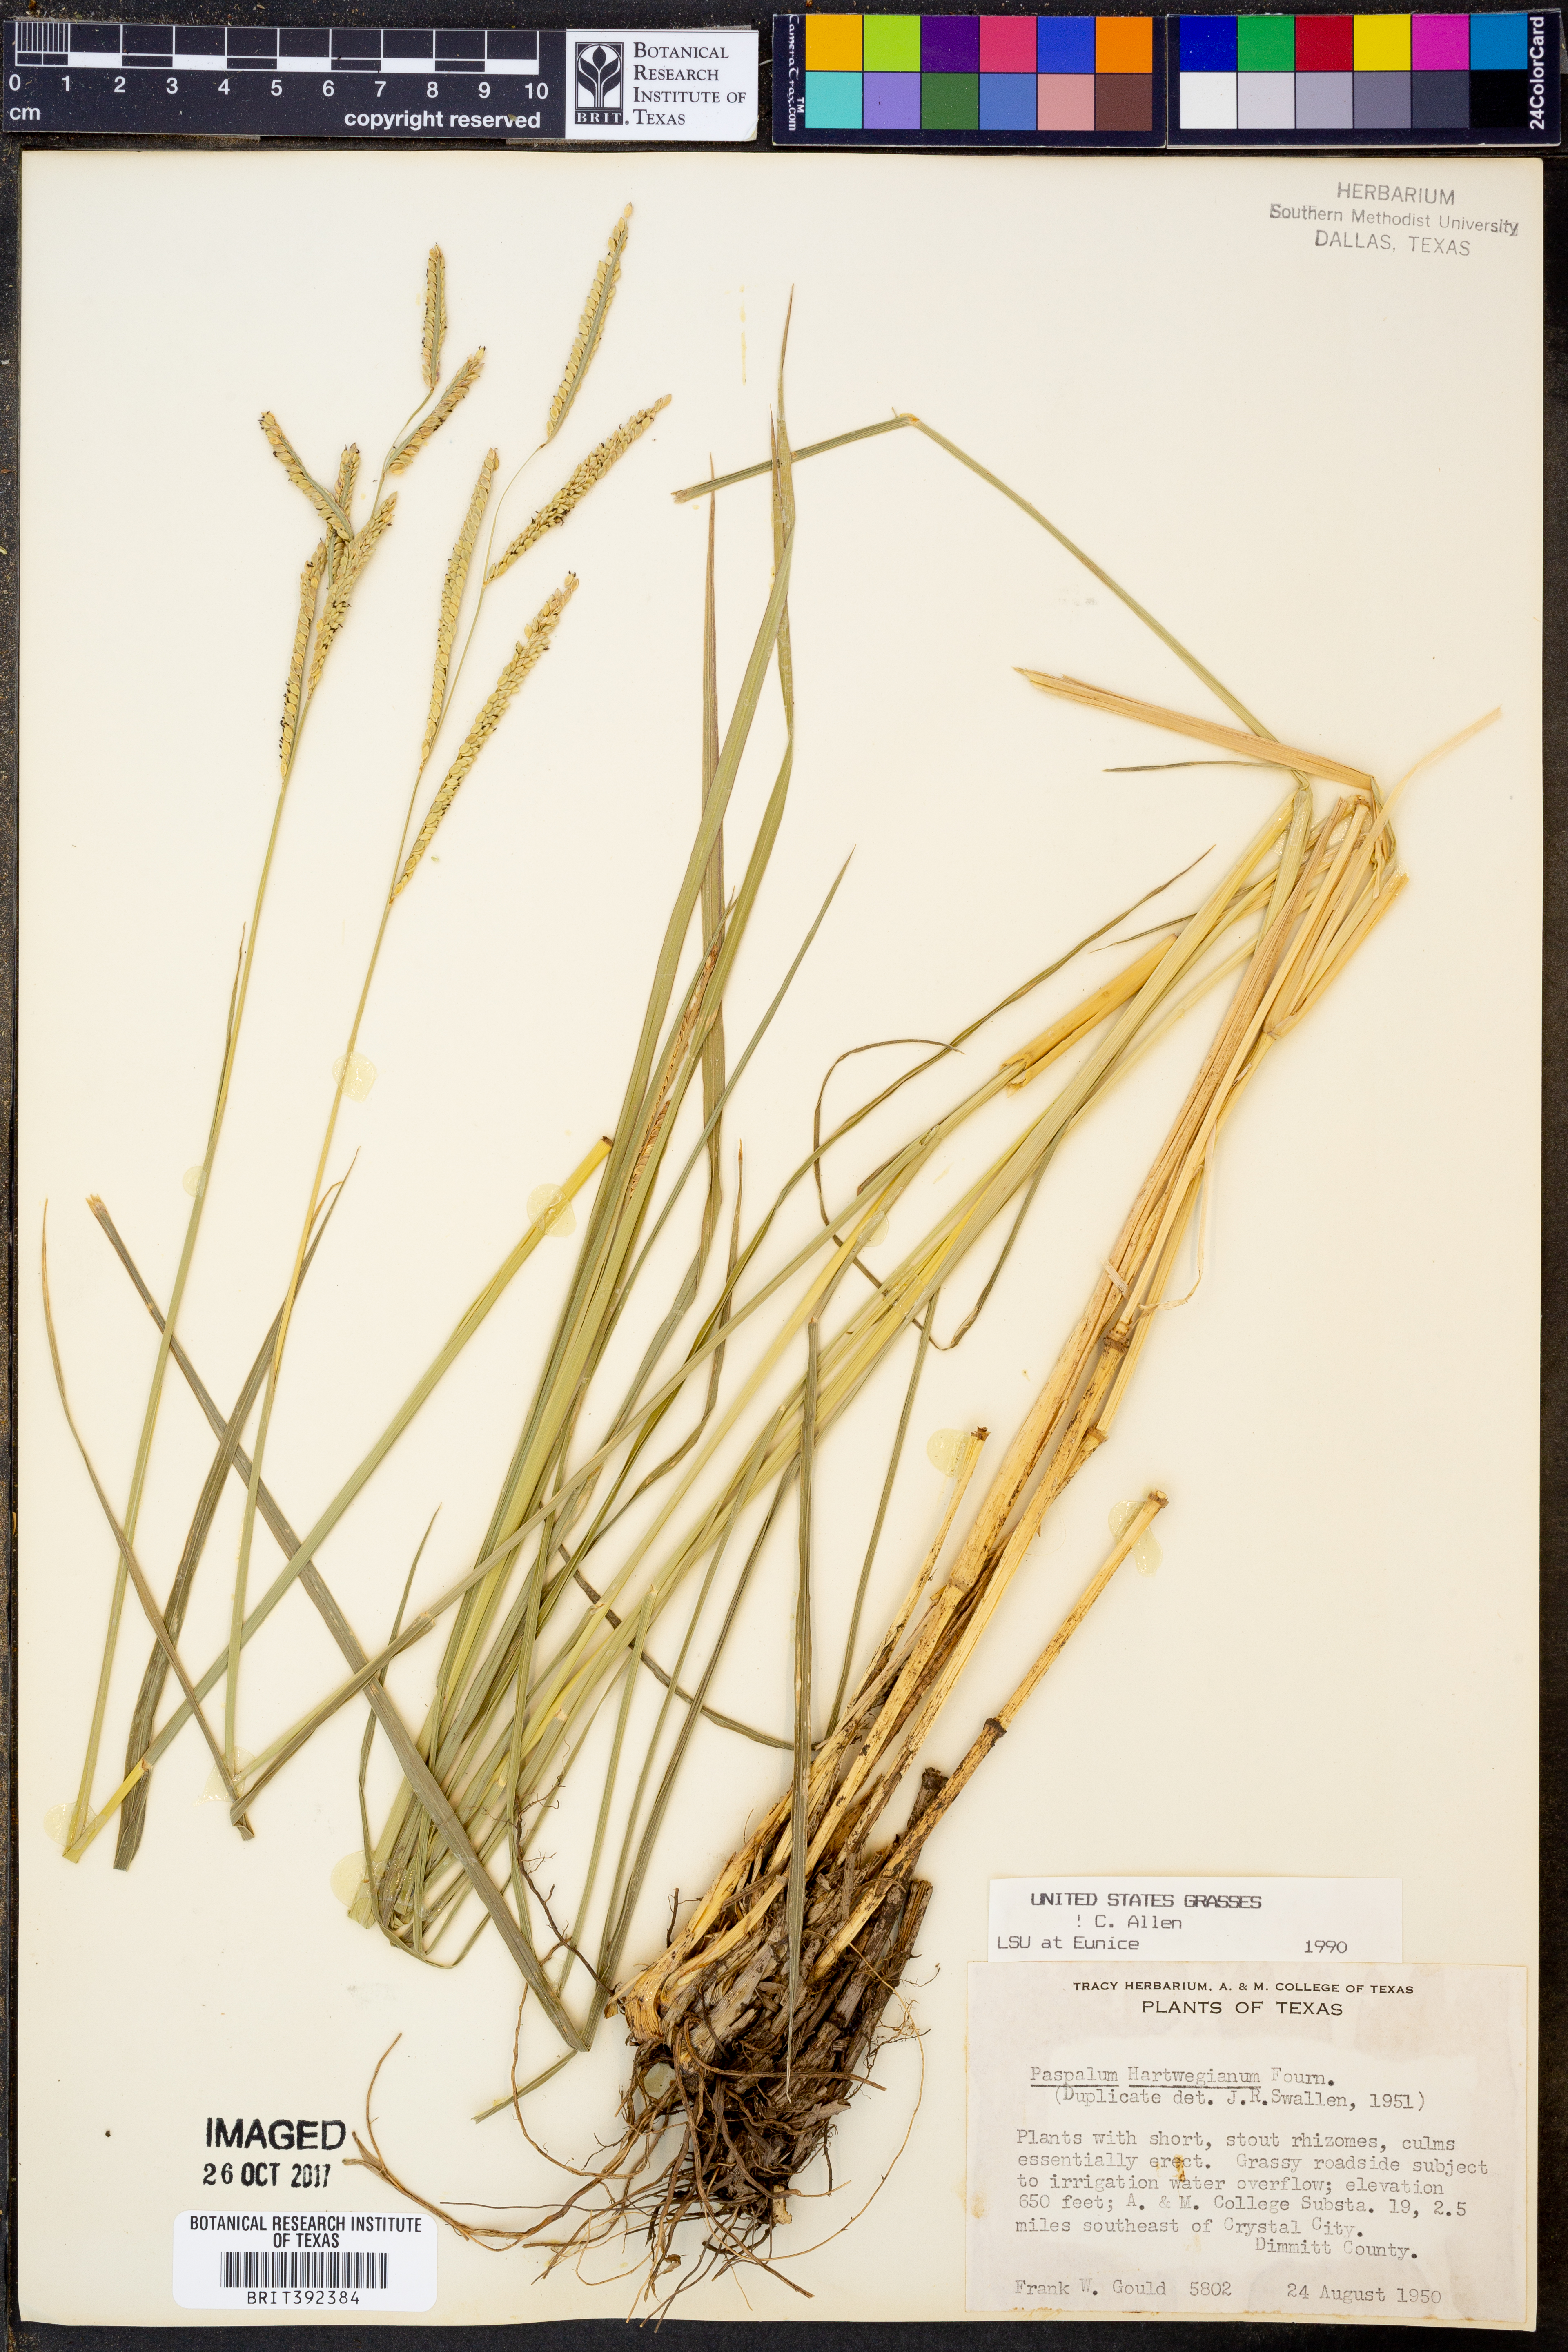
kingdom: Plantae
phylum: Tracheophyta
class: Liliopsida
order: Poales
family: Poaceae
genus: Paspalum
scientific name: Paspalum hartwegianum
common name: Hartweg's paspalum
